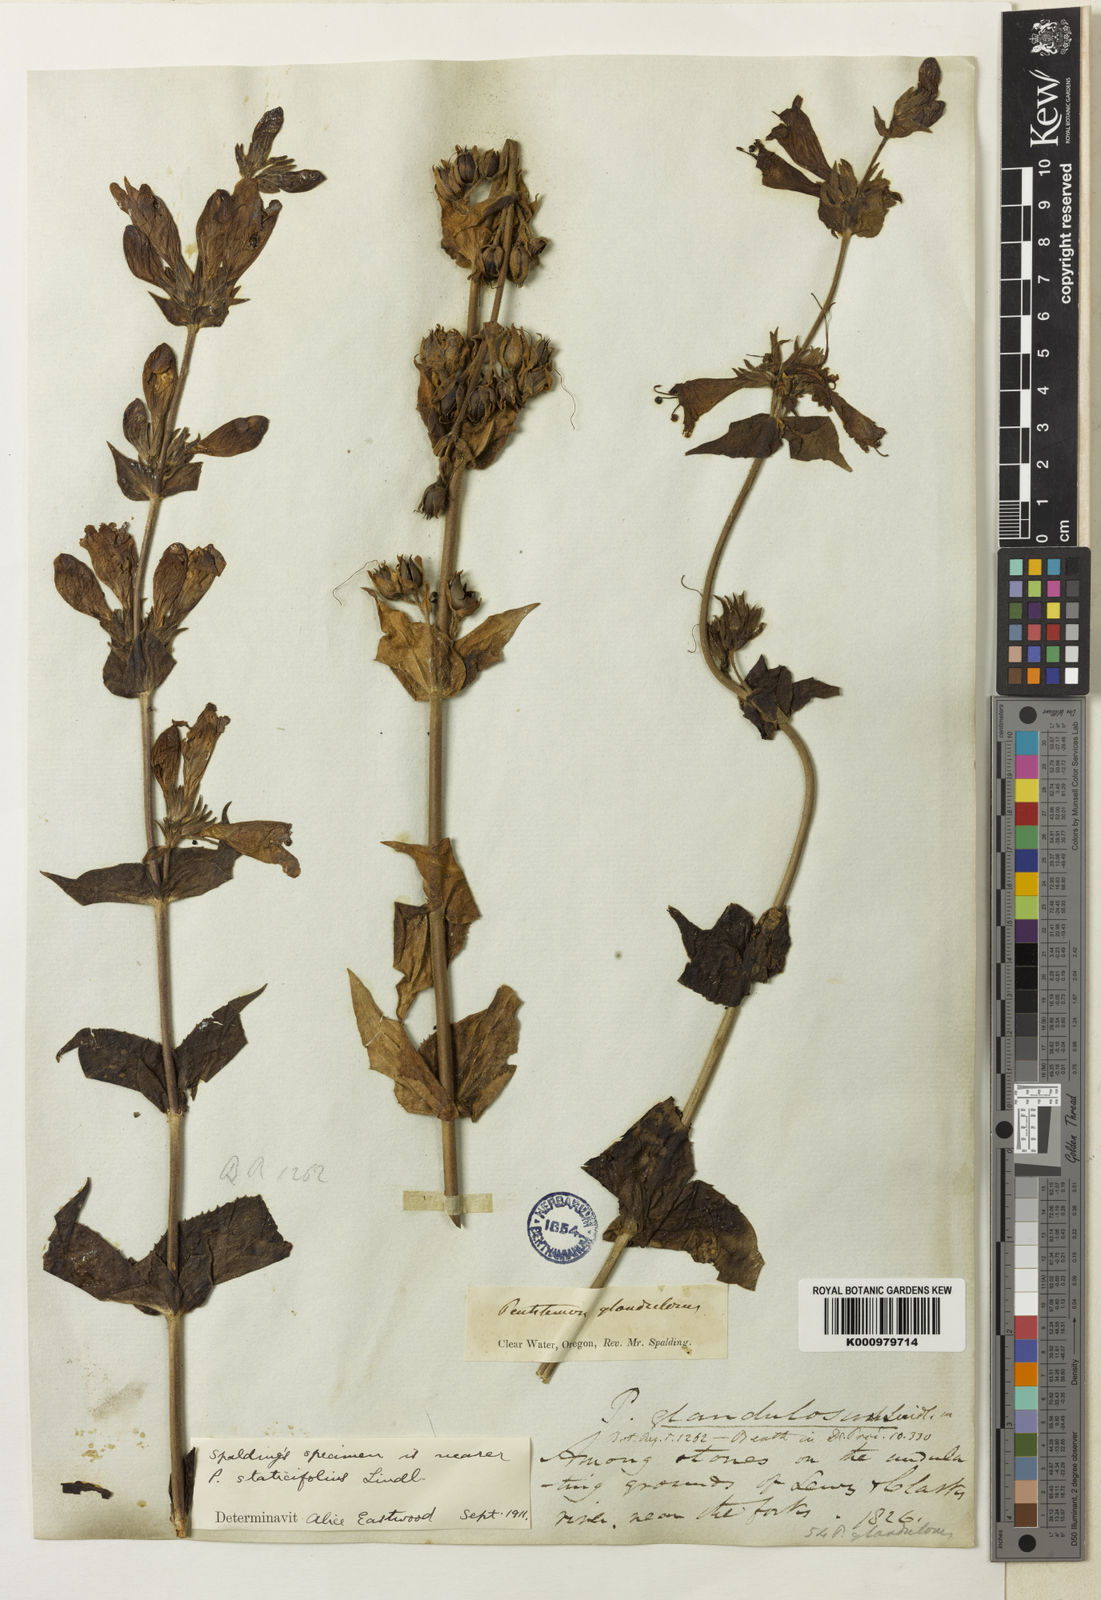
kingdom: Plantae
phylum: Tracheophyta
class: Magnoliopsida
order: Lamiales
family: Plantaginaceae
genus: Penstemon
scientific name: Penstemon dissectus
